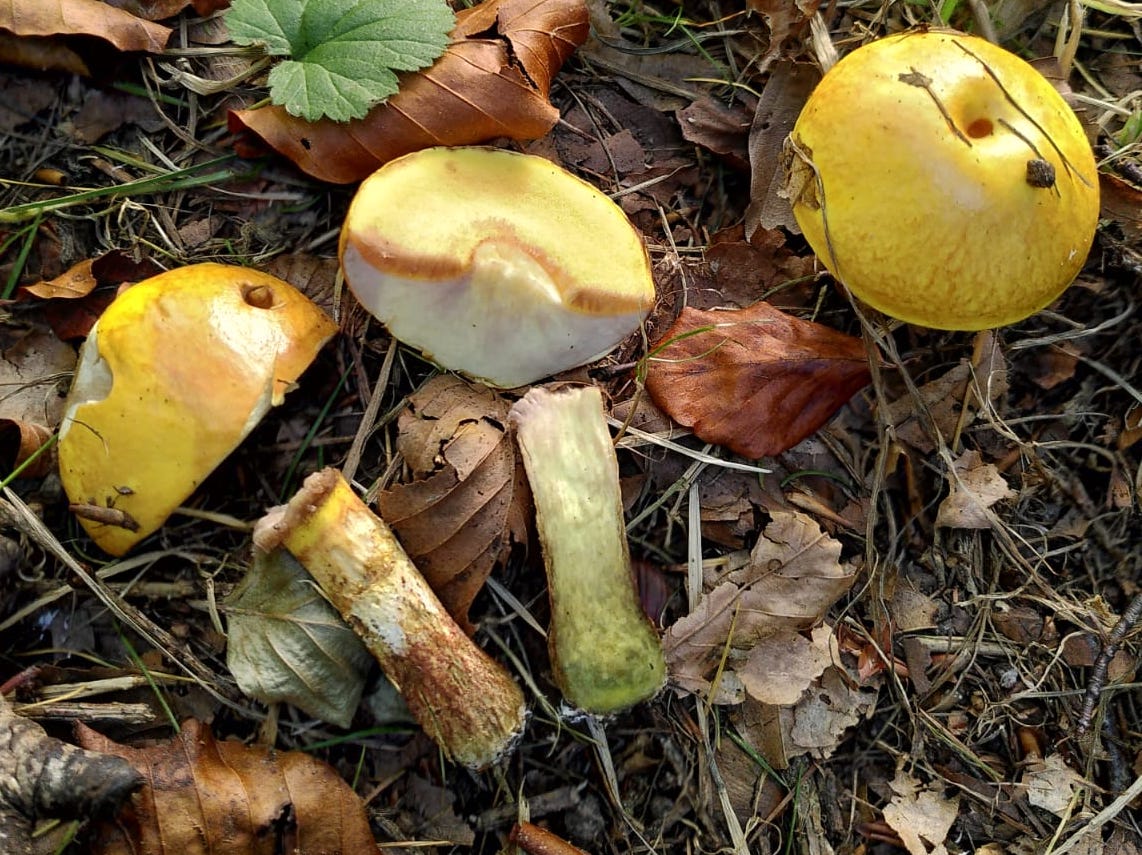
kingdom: Fungi
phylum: Basidiomycota
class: Agaricomycetes
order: Boletales
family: Suillaceae
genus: Suillus
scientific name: Suillus grevillei
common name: lærke-slimrørhat
